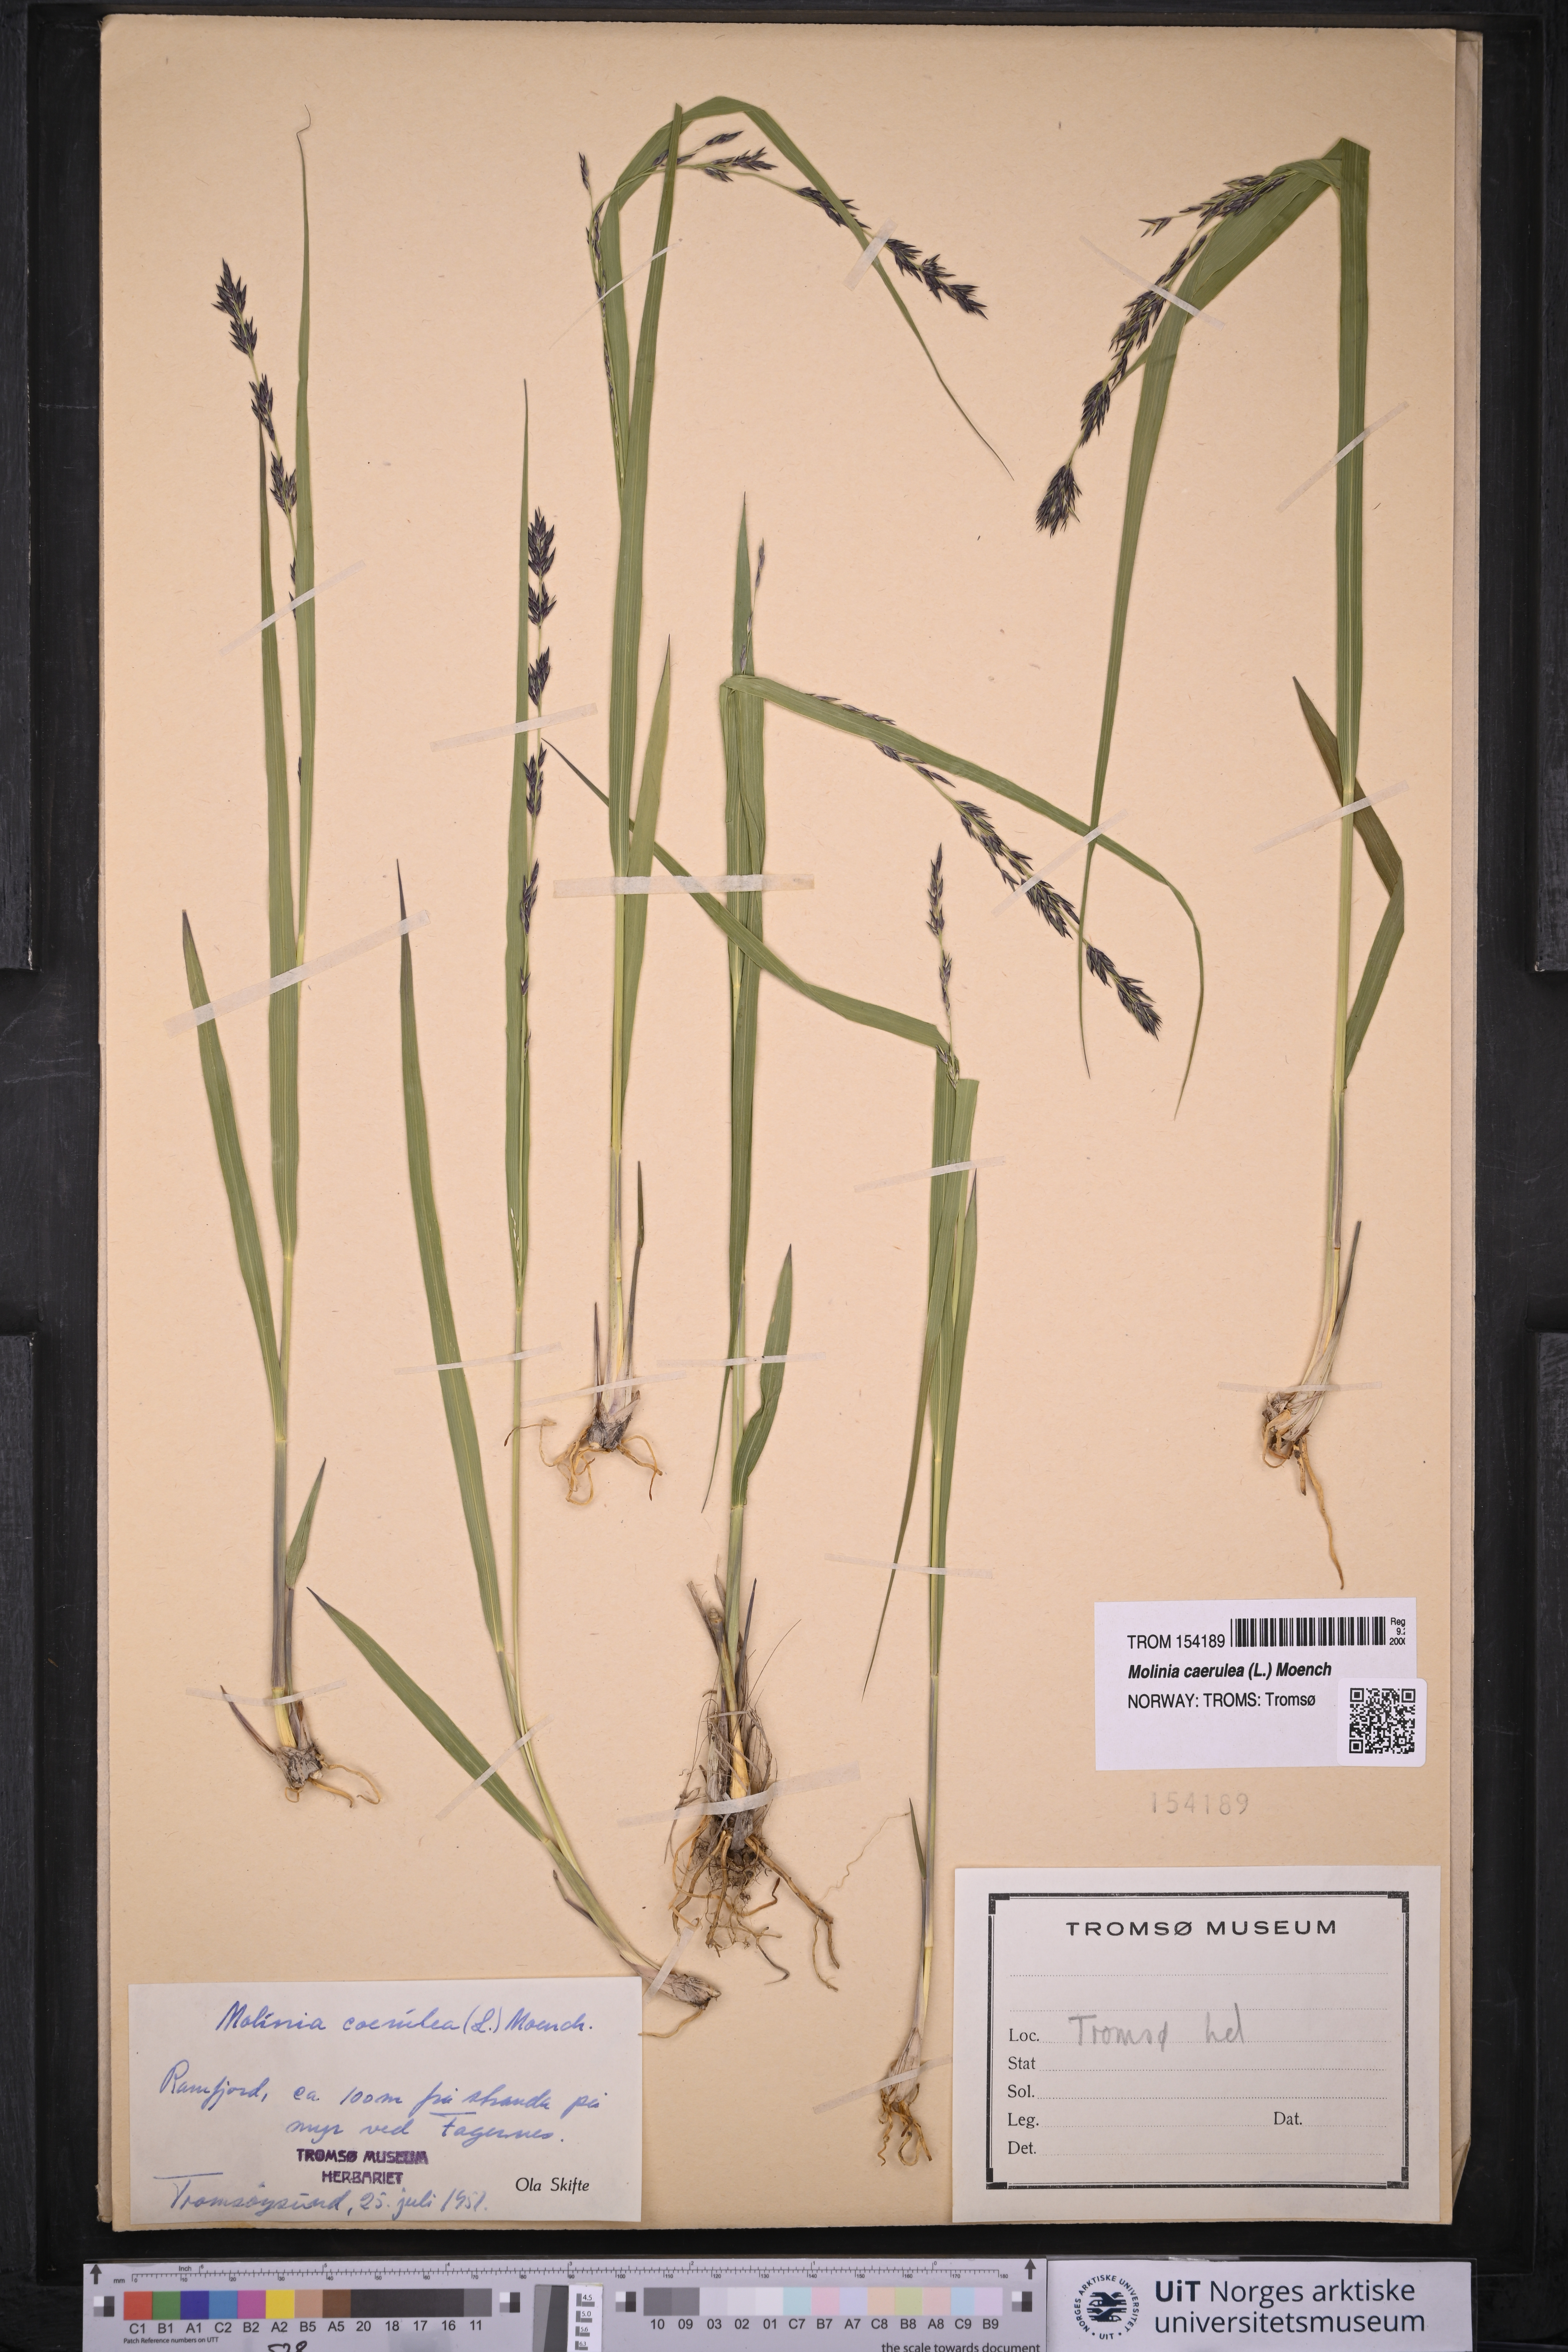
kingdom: Plantae
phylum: Tracheophyta
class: Liliopsida
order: Poales
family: Poaceae
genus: Molinia
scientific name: Molinia caerulea
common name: Purple moor-grass
